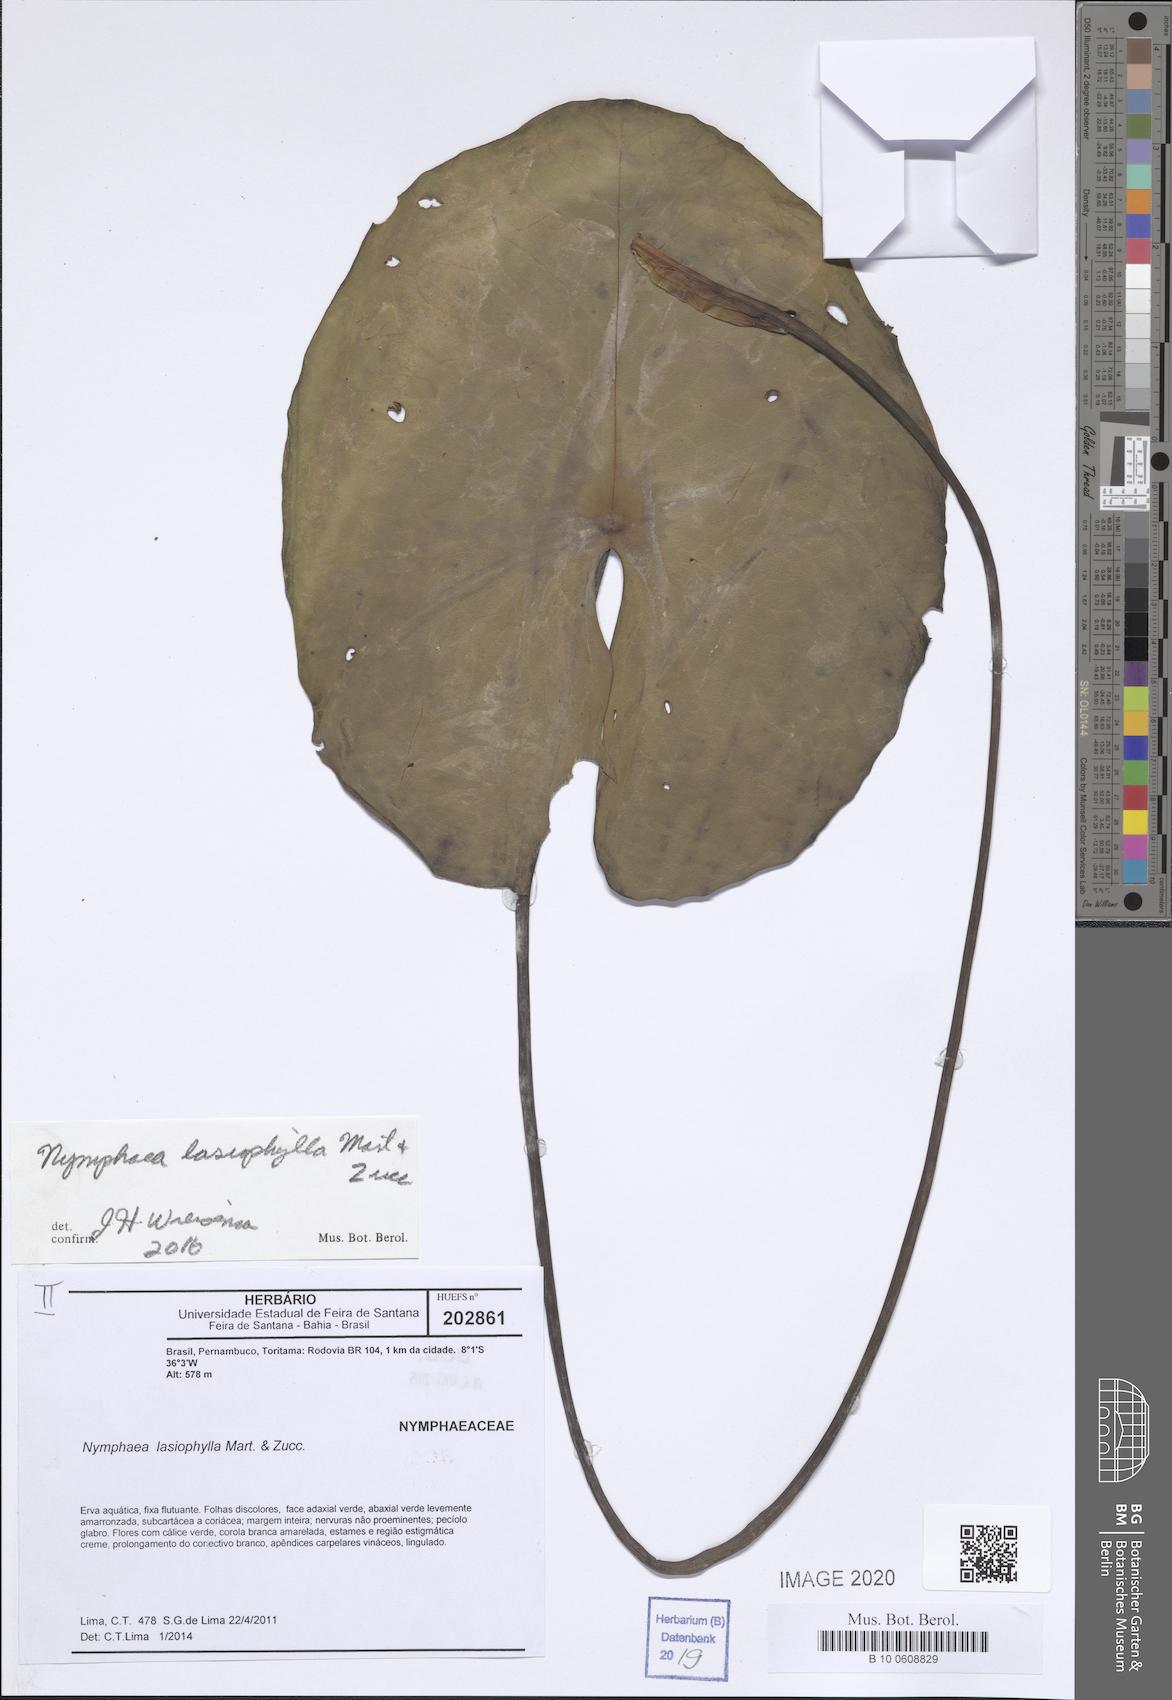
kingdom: Plantae
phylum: Tracheophyta
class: Magnoliopsida
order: Nymphaeales
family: Nymphaeaceae
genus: Nymphaea
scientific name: Nymphaea lasiophylla
